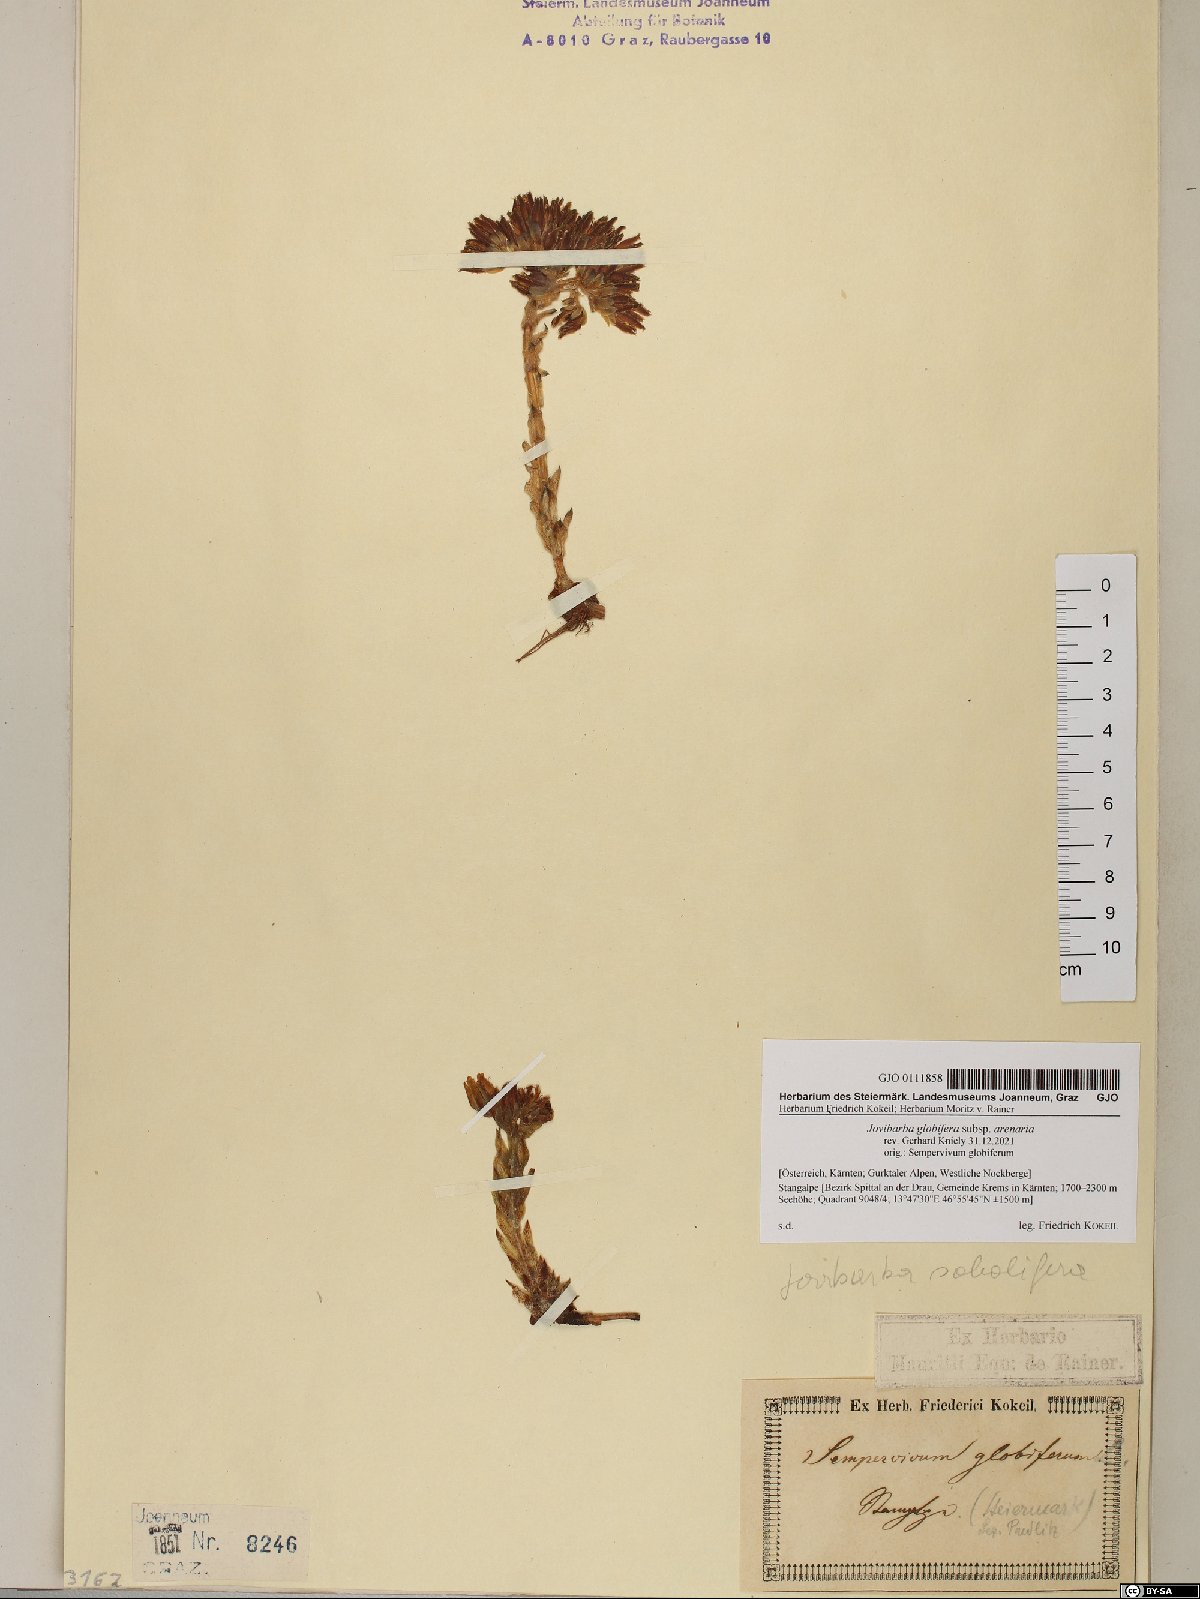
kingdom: Plantae
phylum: Tracheophyta
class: Magnoliopsida
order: Saxifragales
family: Crassulaceae
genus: Sempervivum
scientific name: Sempervivum globiferum
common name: Rolling hen-and-chicks
